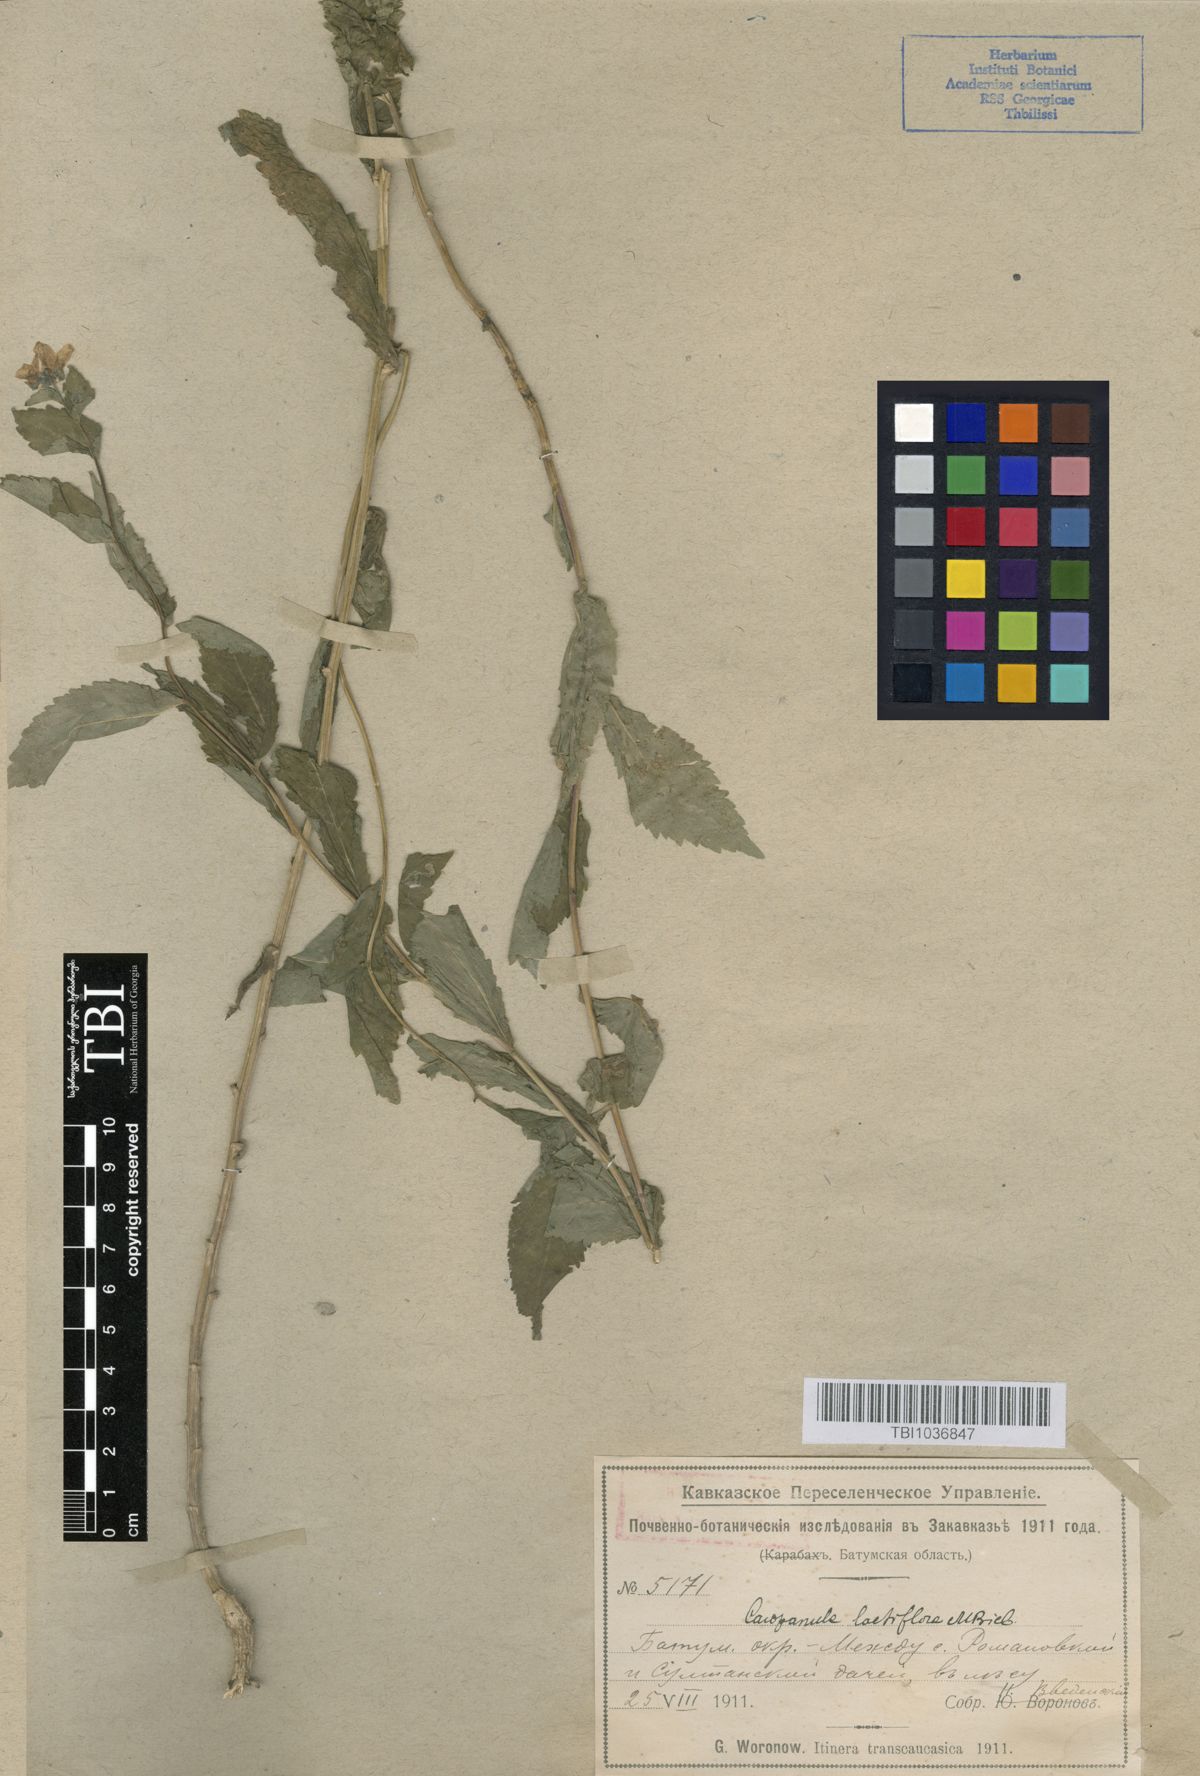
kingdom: Plantae
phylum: Tracheophyta
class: Magnoliopsida
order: Asterales
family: Campanulaceae
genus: Campanula
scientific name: Campanula lactiflora
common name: Milky bellflower
